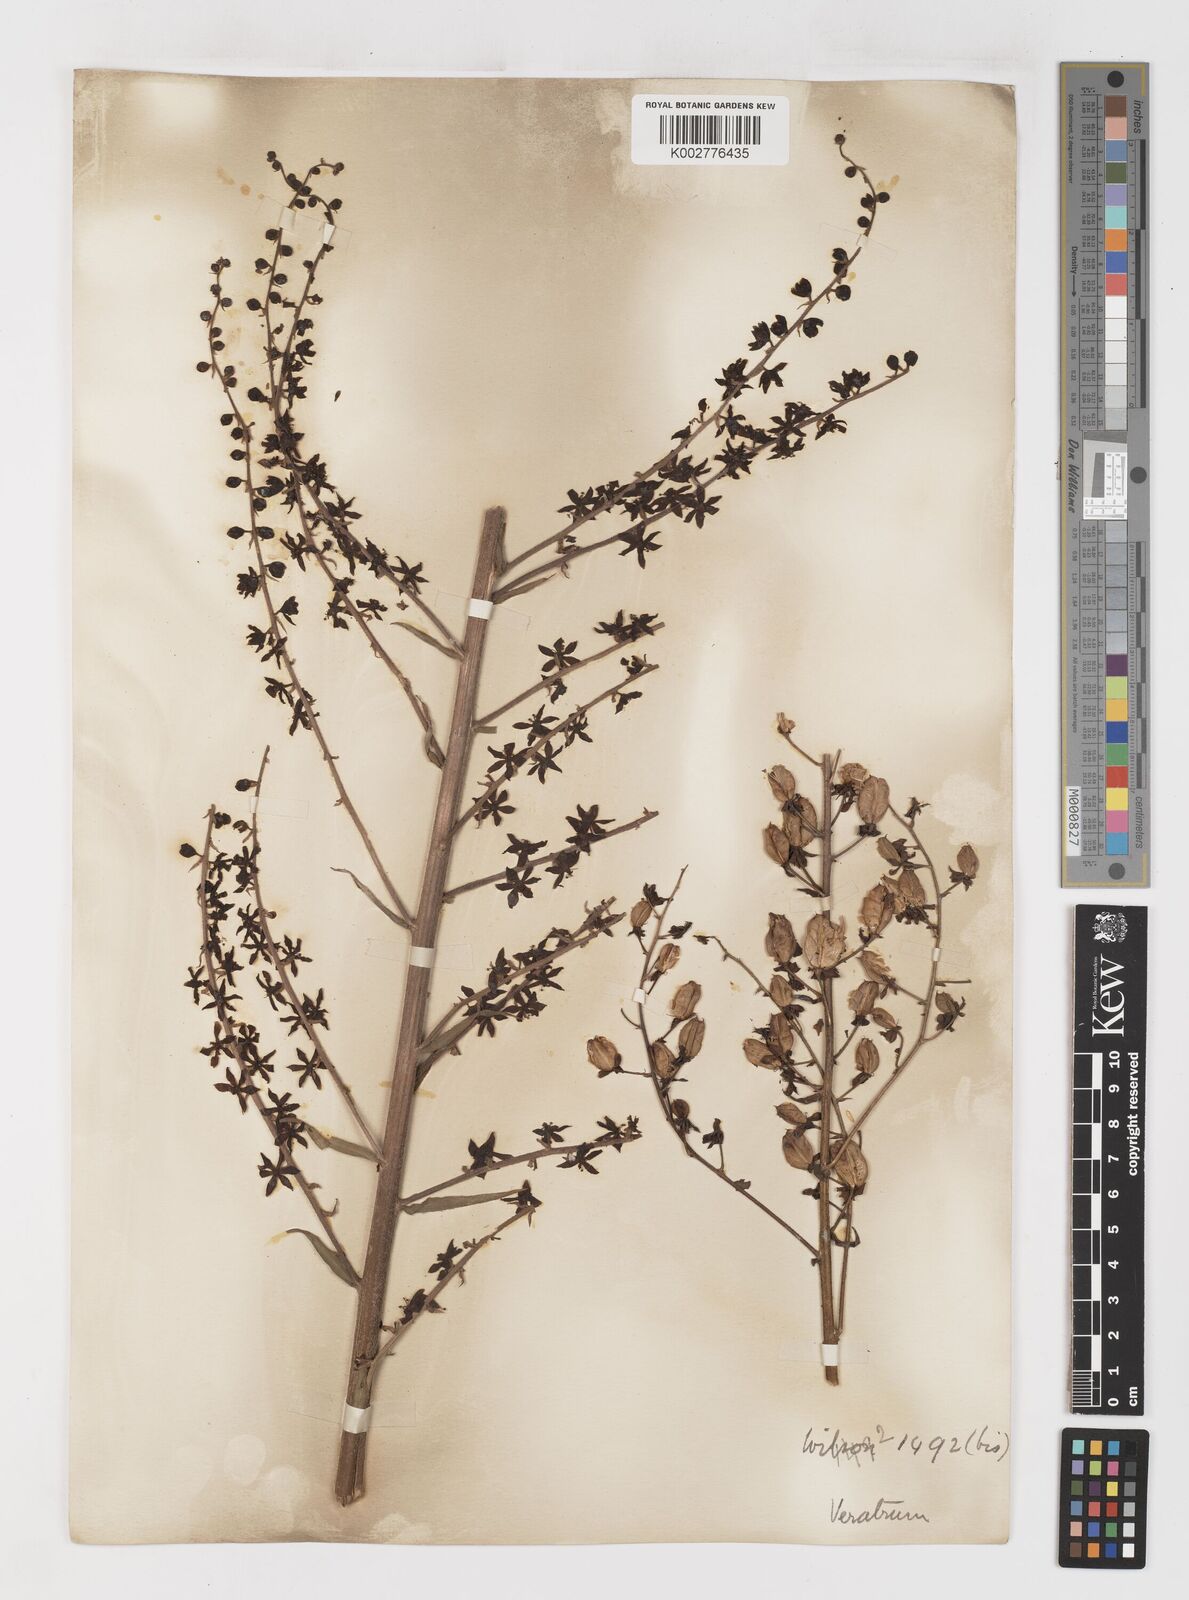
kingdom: Plantae
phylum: Tracheophyta
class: Liliopsida
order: Liliales
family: Melanthiaceae
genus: Veratrum
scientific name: Veratrum nigrum
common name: Black veratrum
